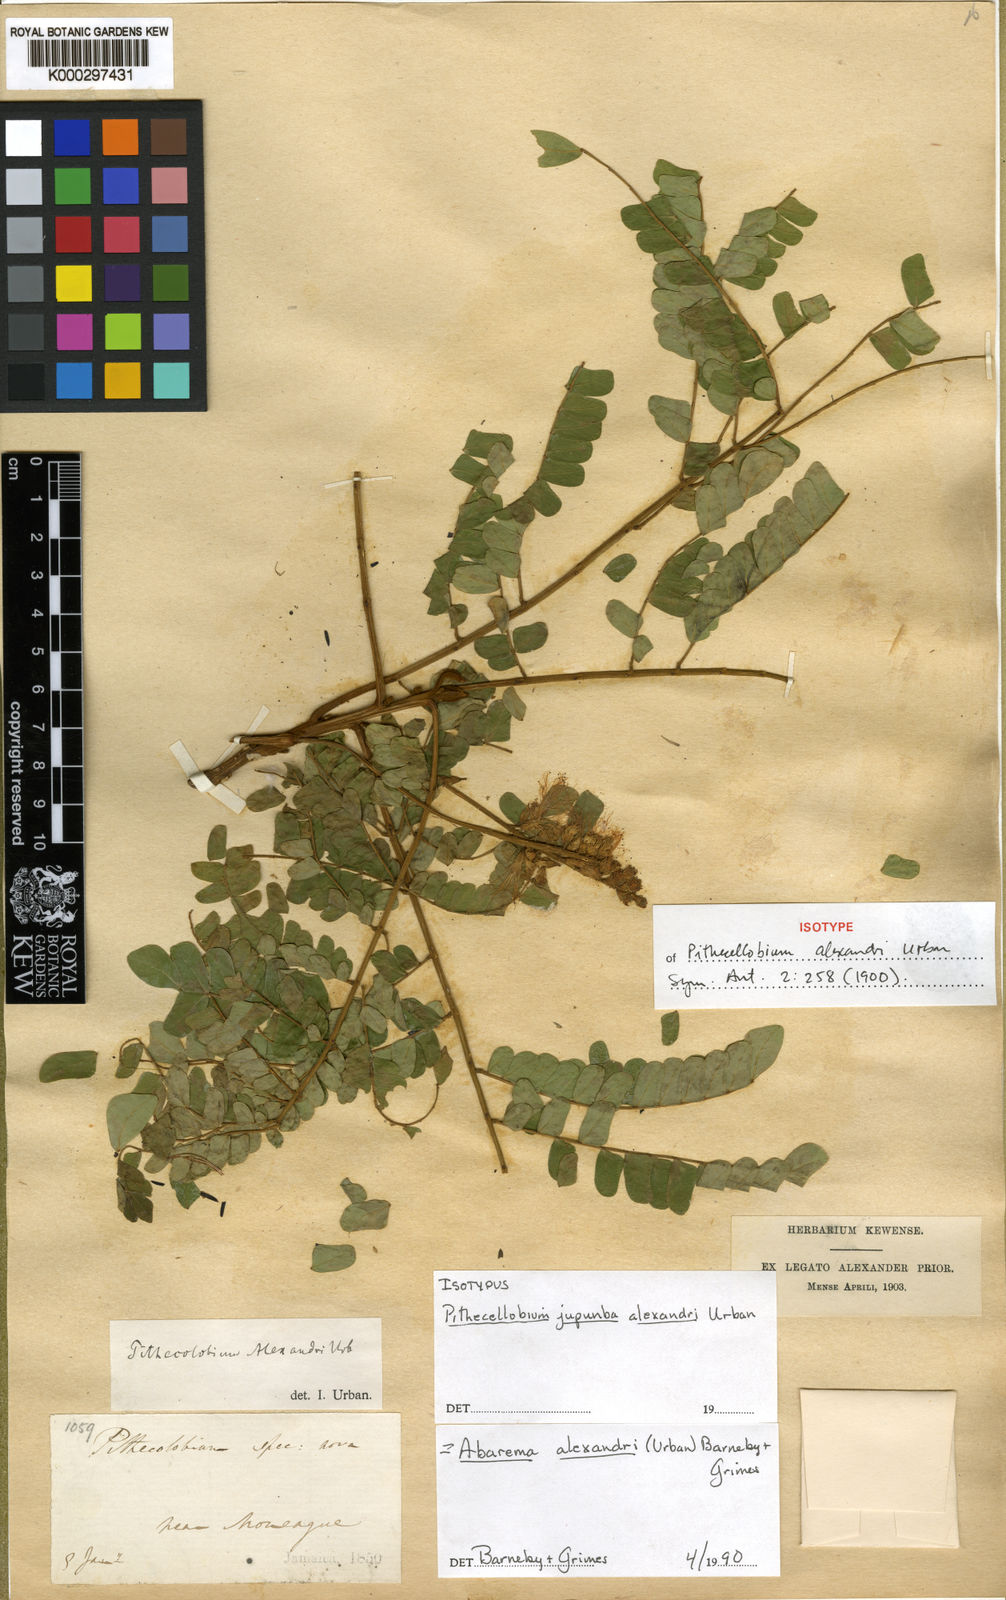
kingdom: Plantae
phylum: Tracheophyta
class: Magnoliopsida
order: Fabales
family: Fabaceae
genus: Jupunba
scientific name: Jupunba alexandri
